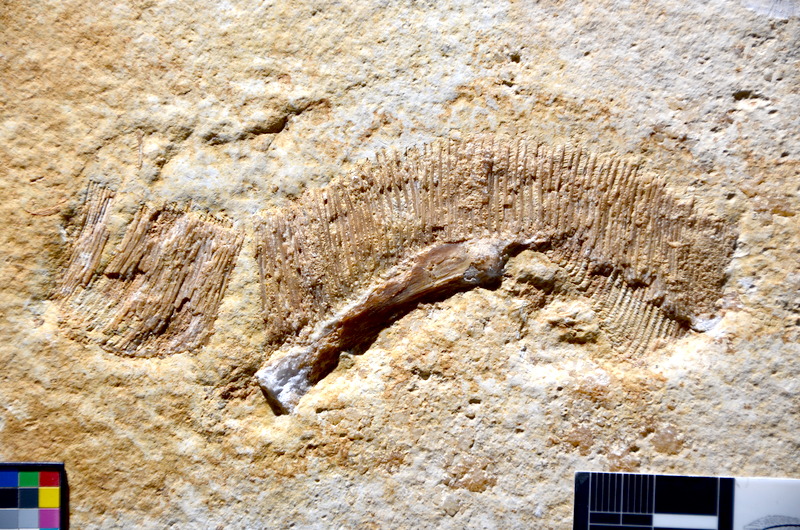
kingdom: Animalia
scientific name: Animalia
